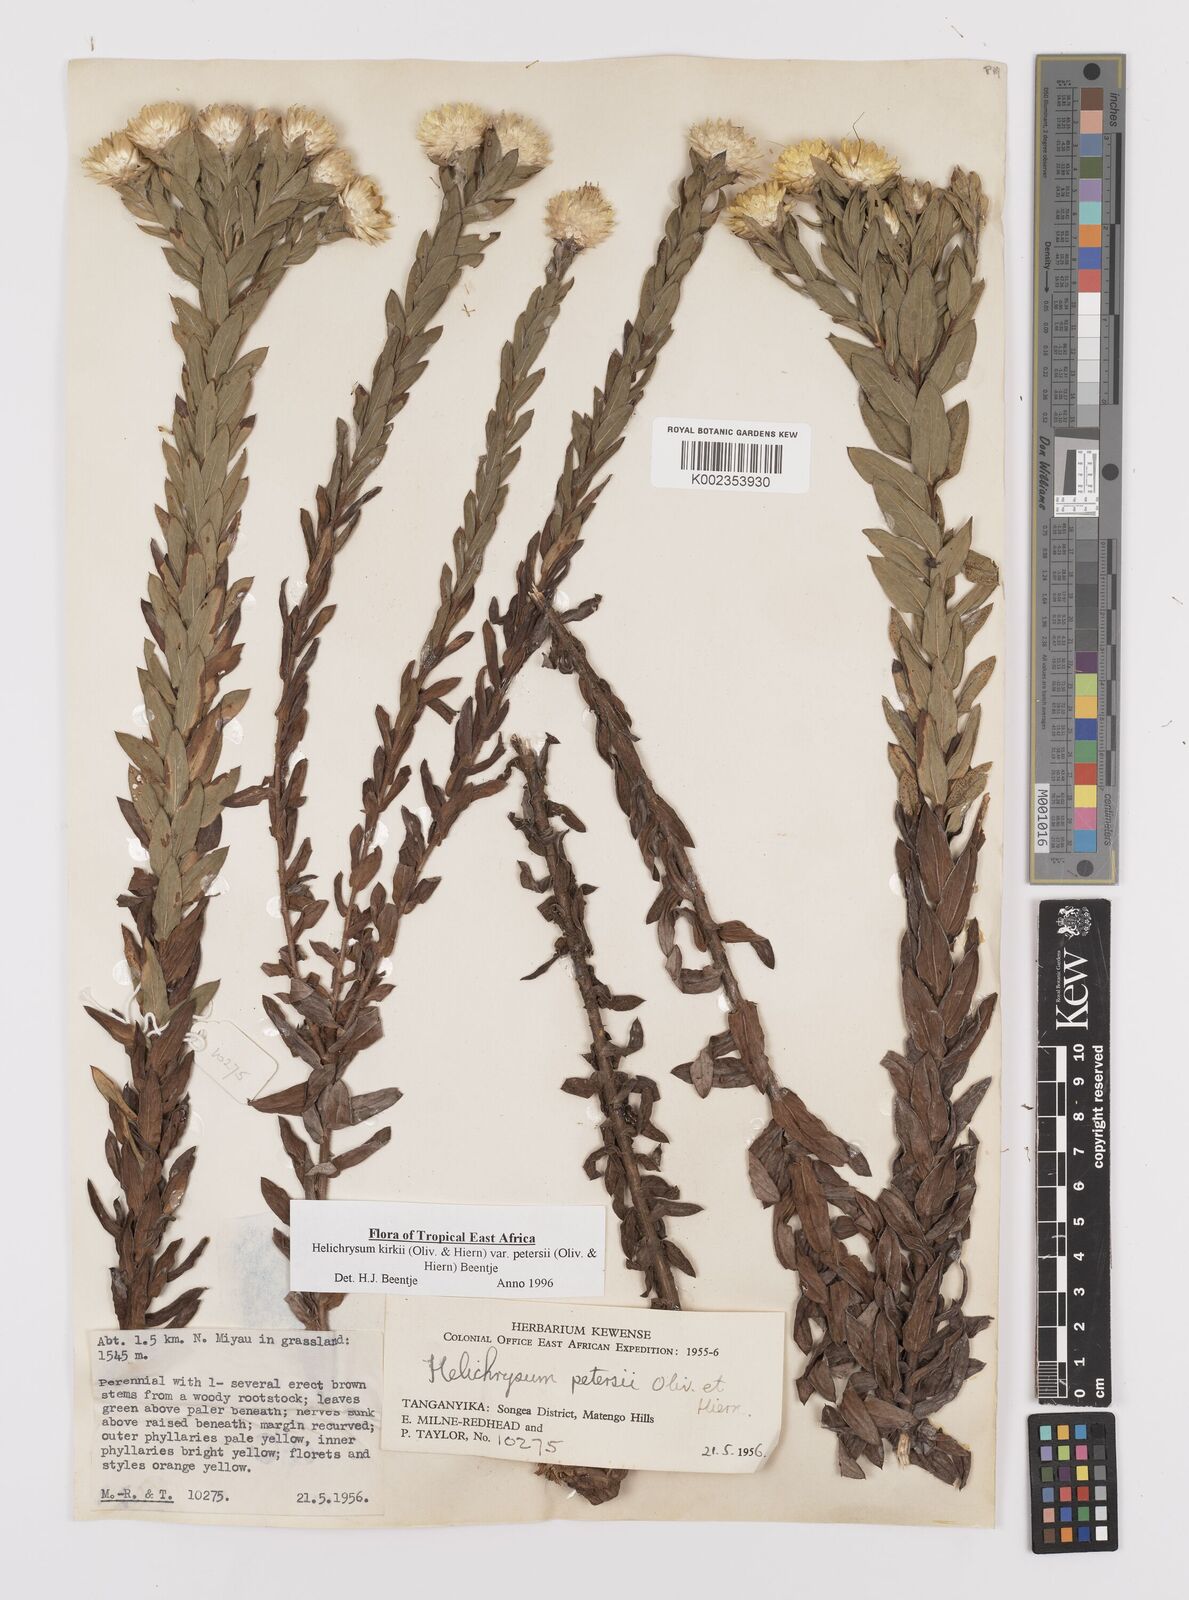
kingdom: Plantae
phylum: Tracheophyta
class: Magnoliopsida
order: Asterales
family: Asteraceae
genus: Helichrysum
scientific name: Helichrysum kirkii
